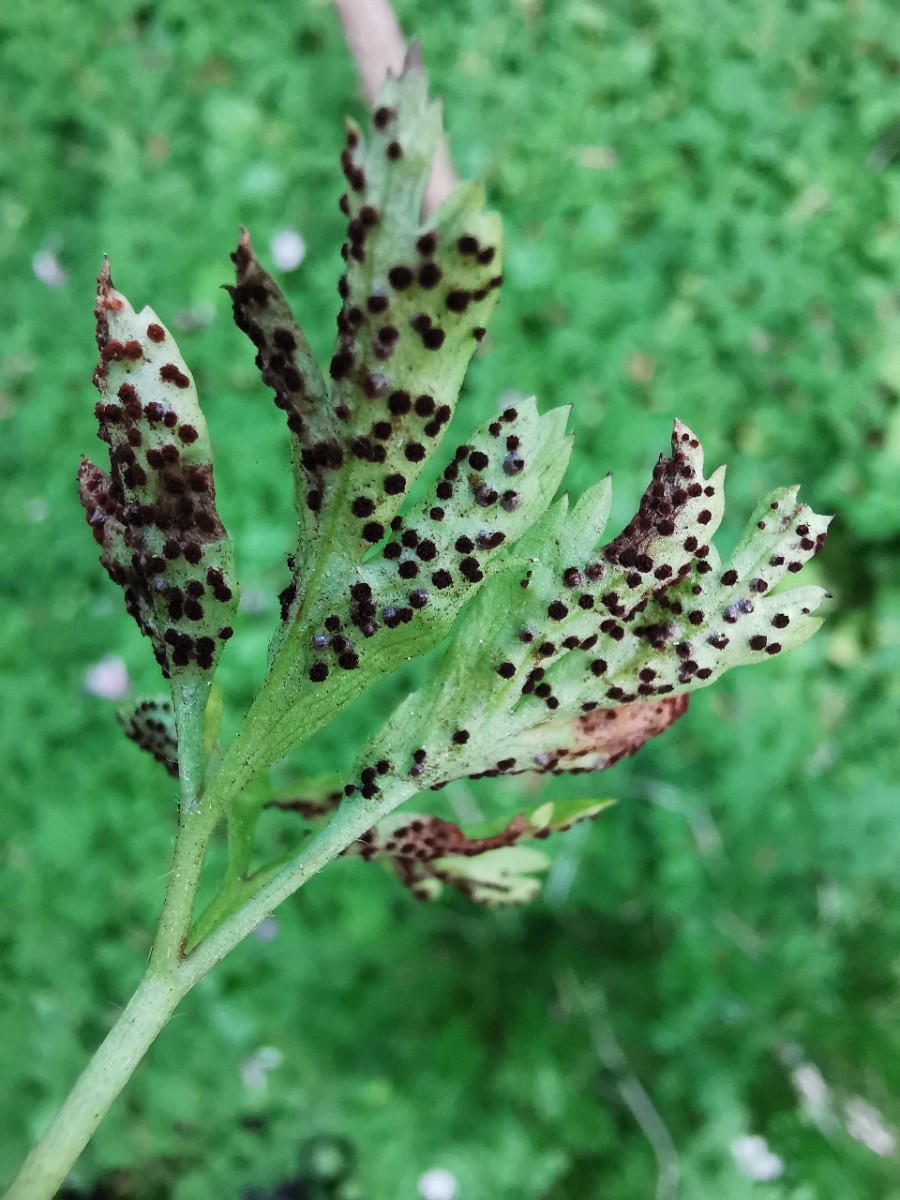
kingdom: Fungi
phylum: Basidiomycota
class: Pucciniomycetes
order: Pucciniales
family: Tranzscheliaceae
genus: Tranzschelia
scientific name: Tranzschelia anemones
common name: anemone-knæksporerust
